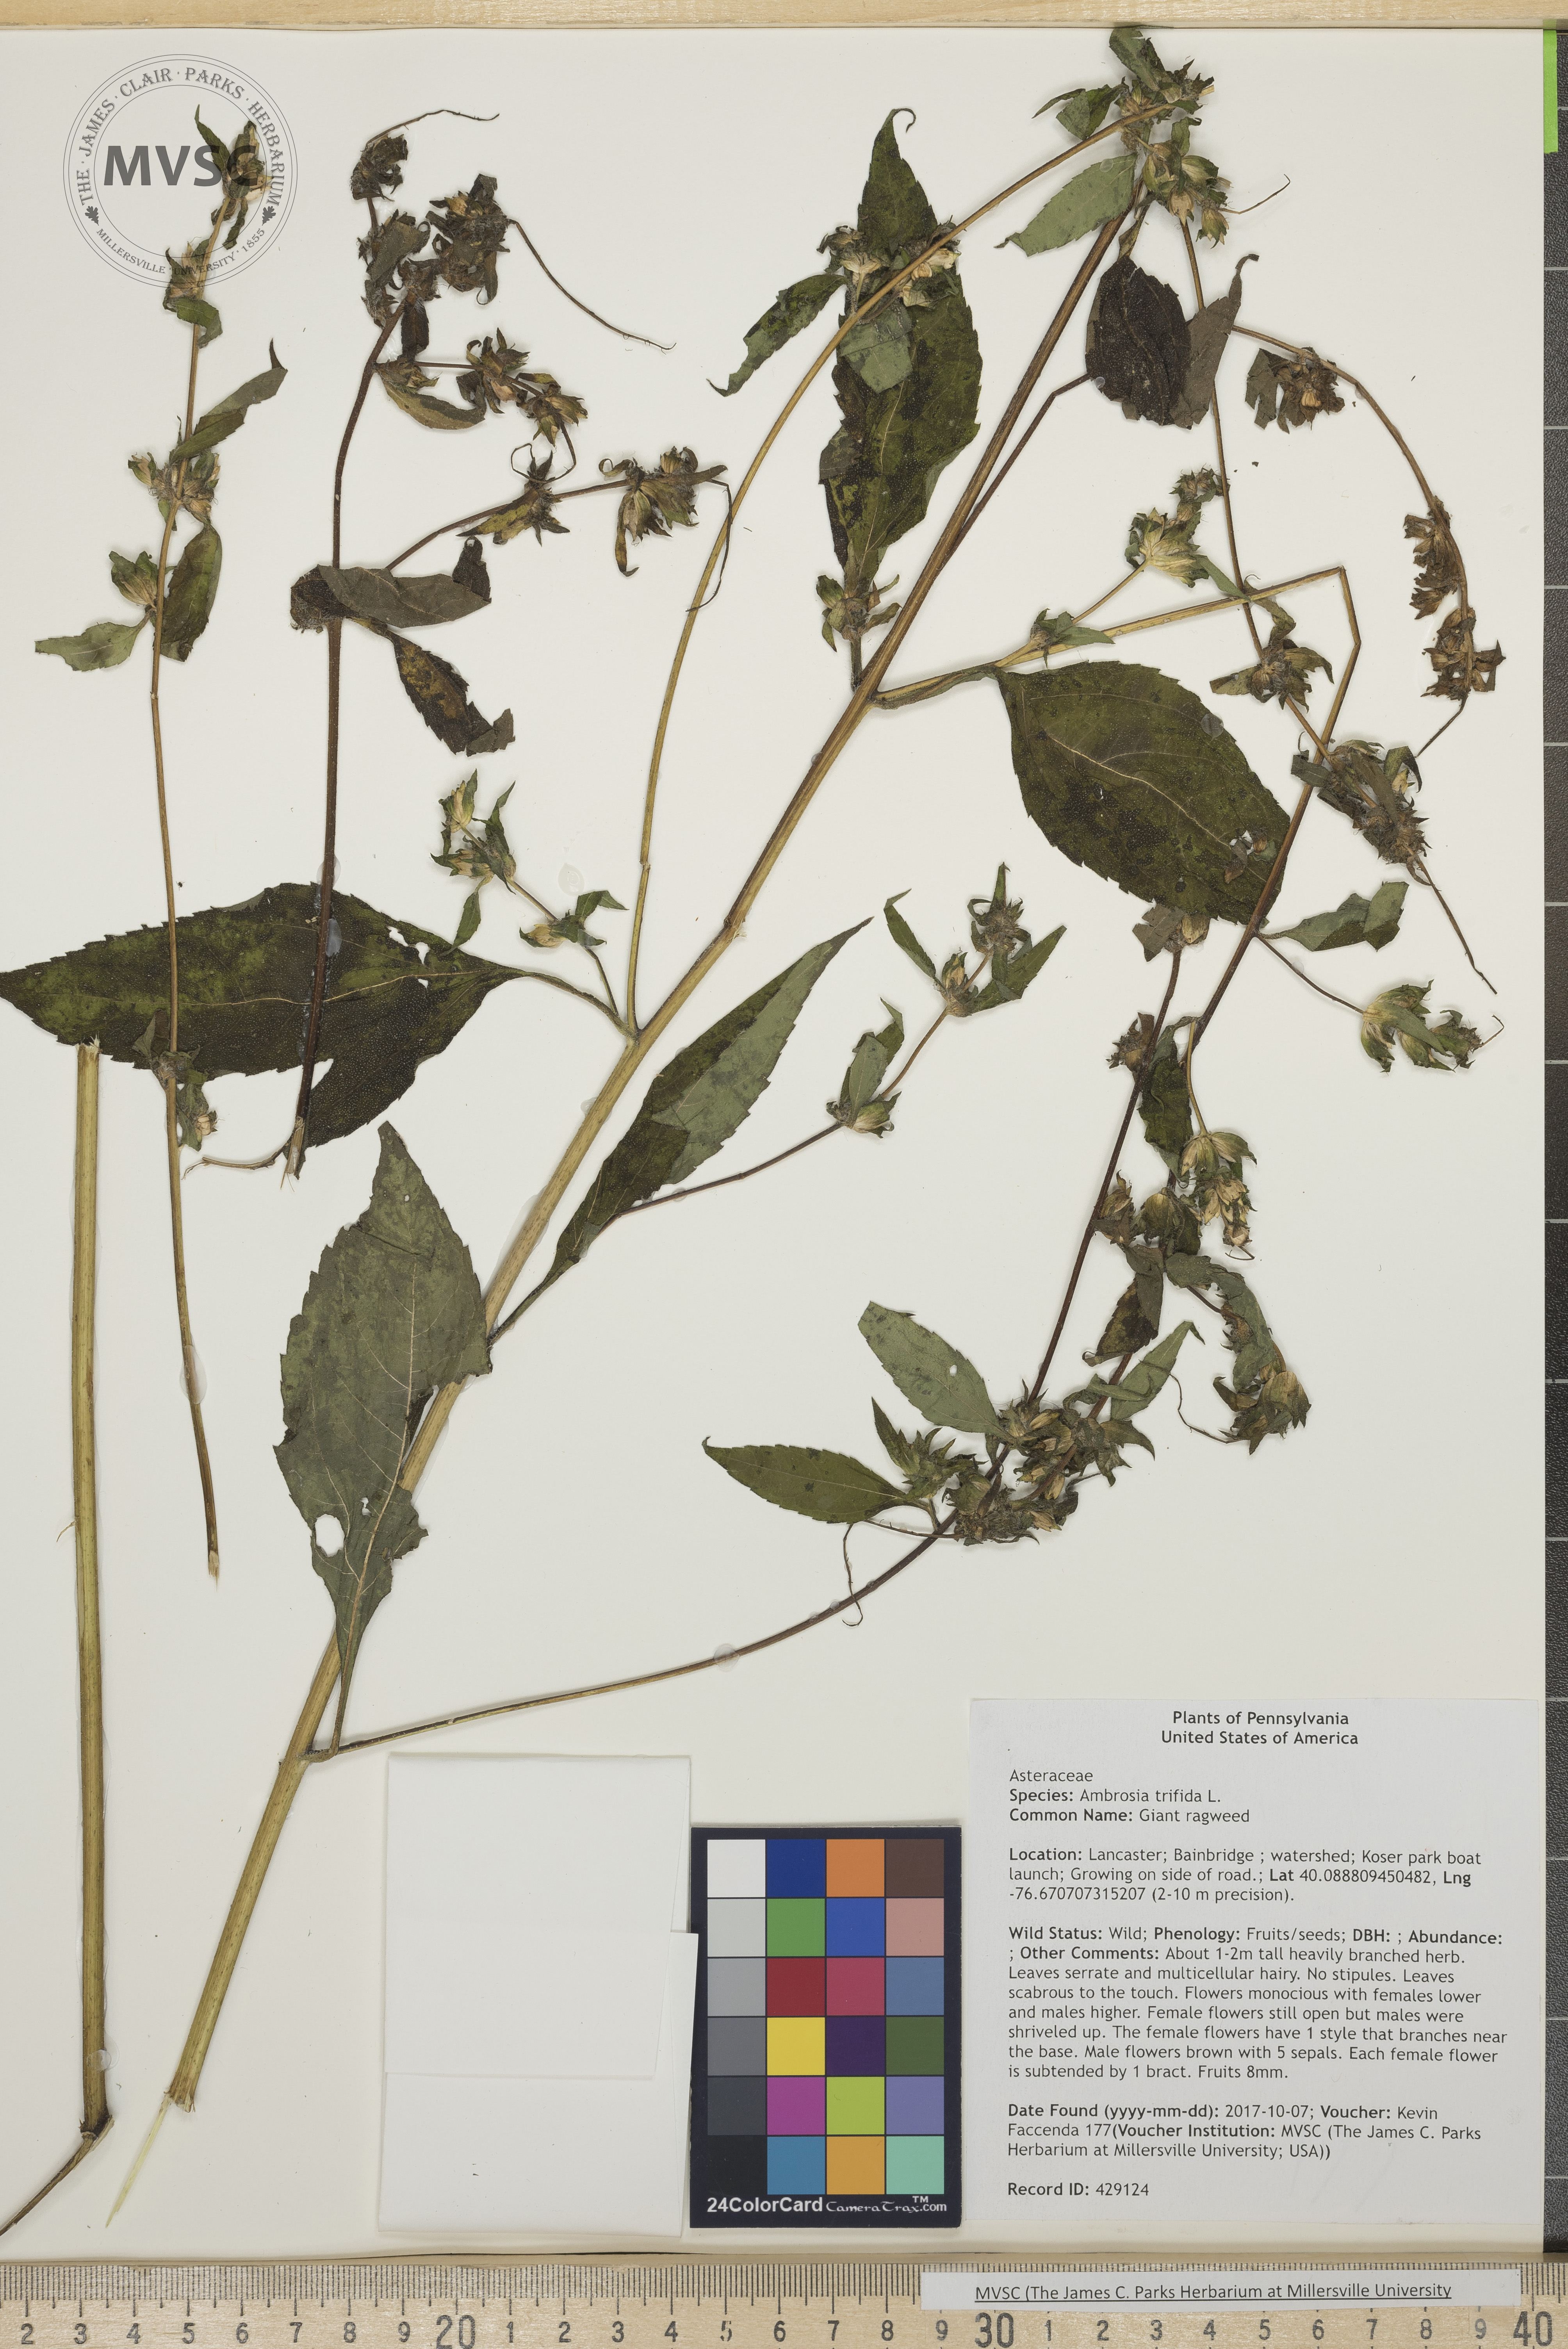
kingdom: Plantae
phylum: Tracheophyta
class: Magnoliopsida
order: Asterales
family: Asteraceae
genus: Ambrosia
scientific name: Ambrosia trifida
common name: Giant ragweed
